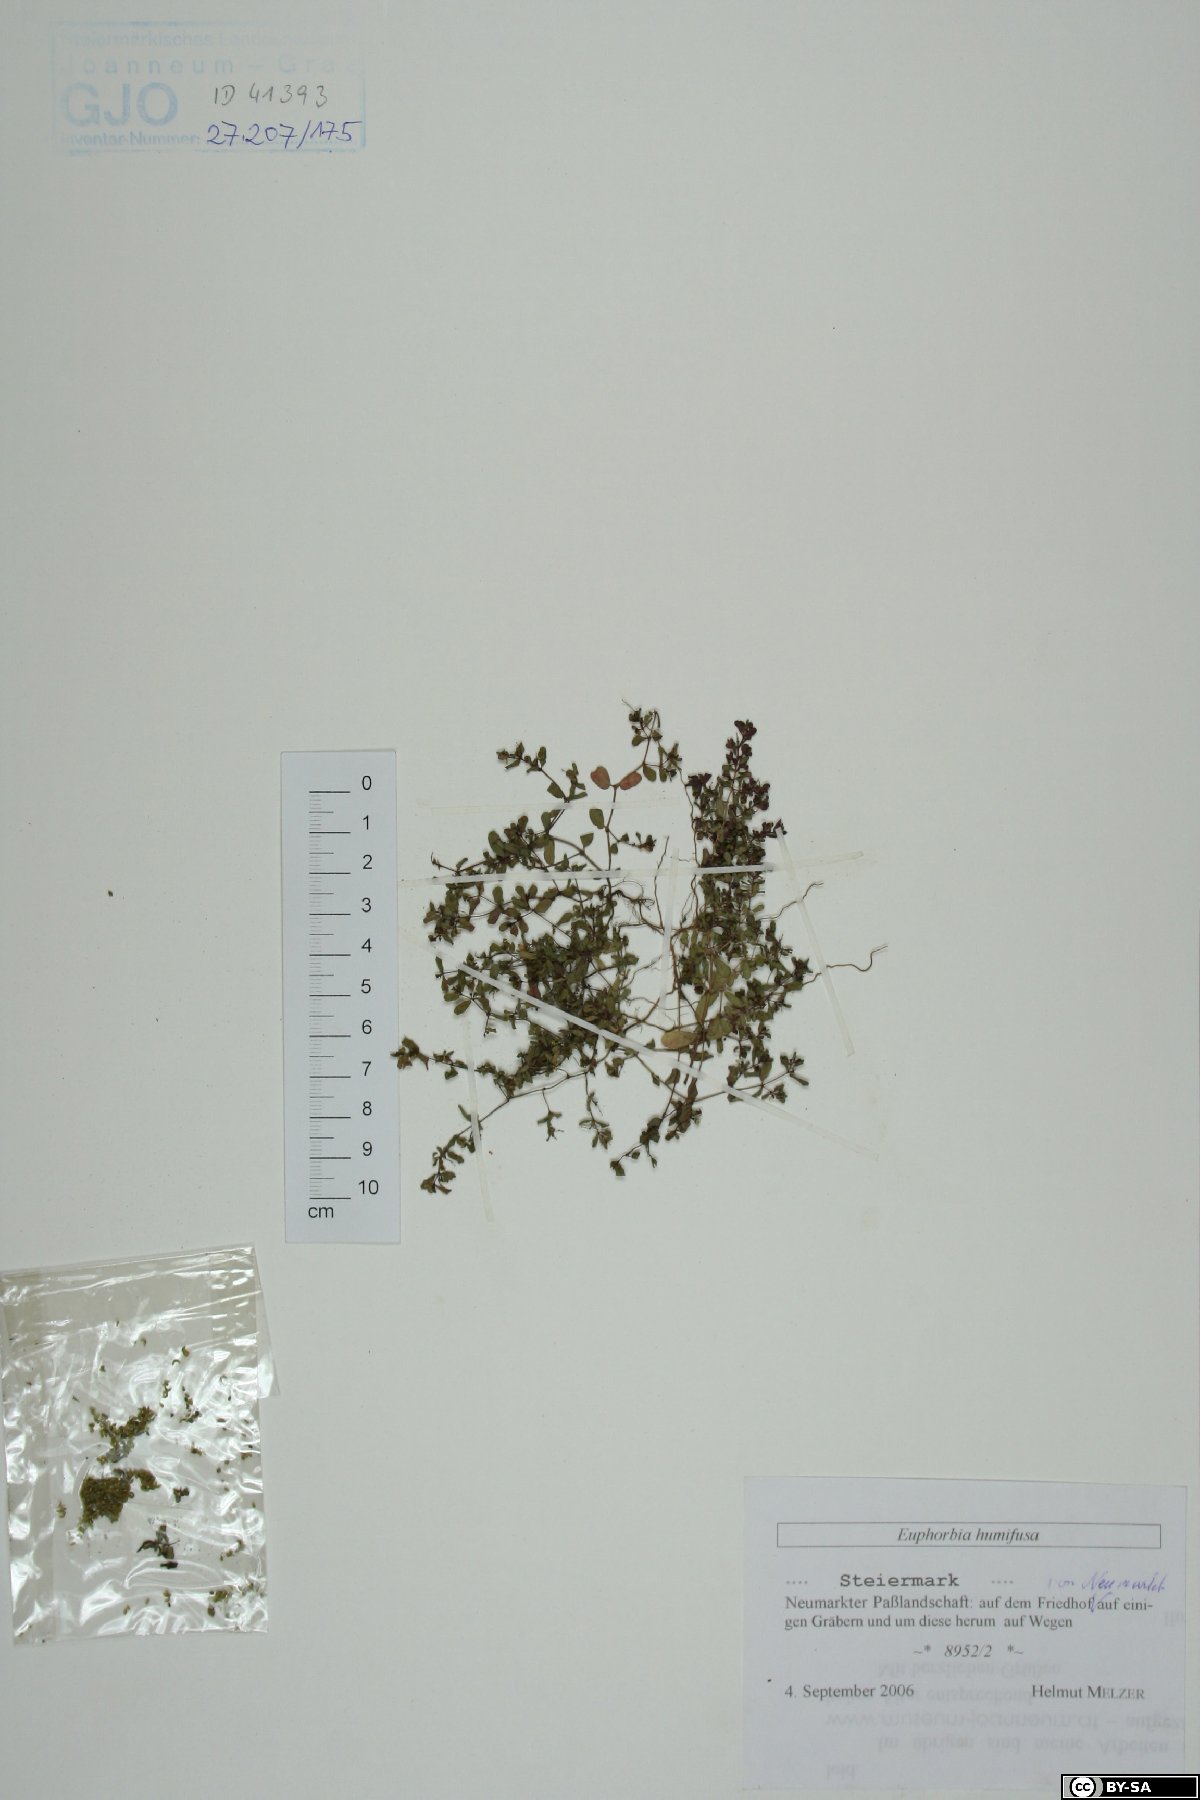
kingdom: Plantae
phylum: Tracheophyta
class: Magnoliopsida
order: Malpighiales
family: Euphorbiaceae
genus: Euphorbia
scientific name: Euphorbia humifusa
